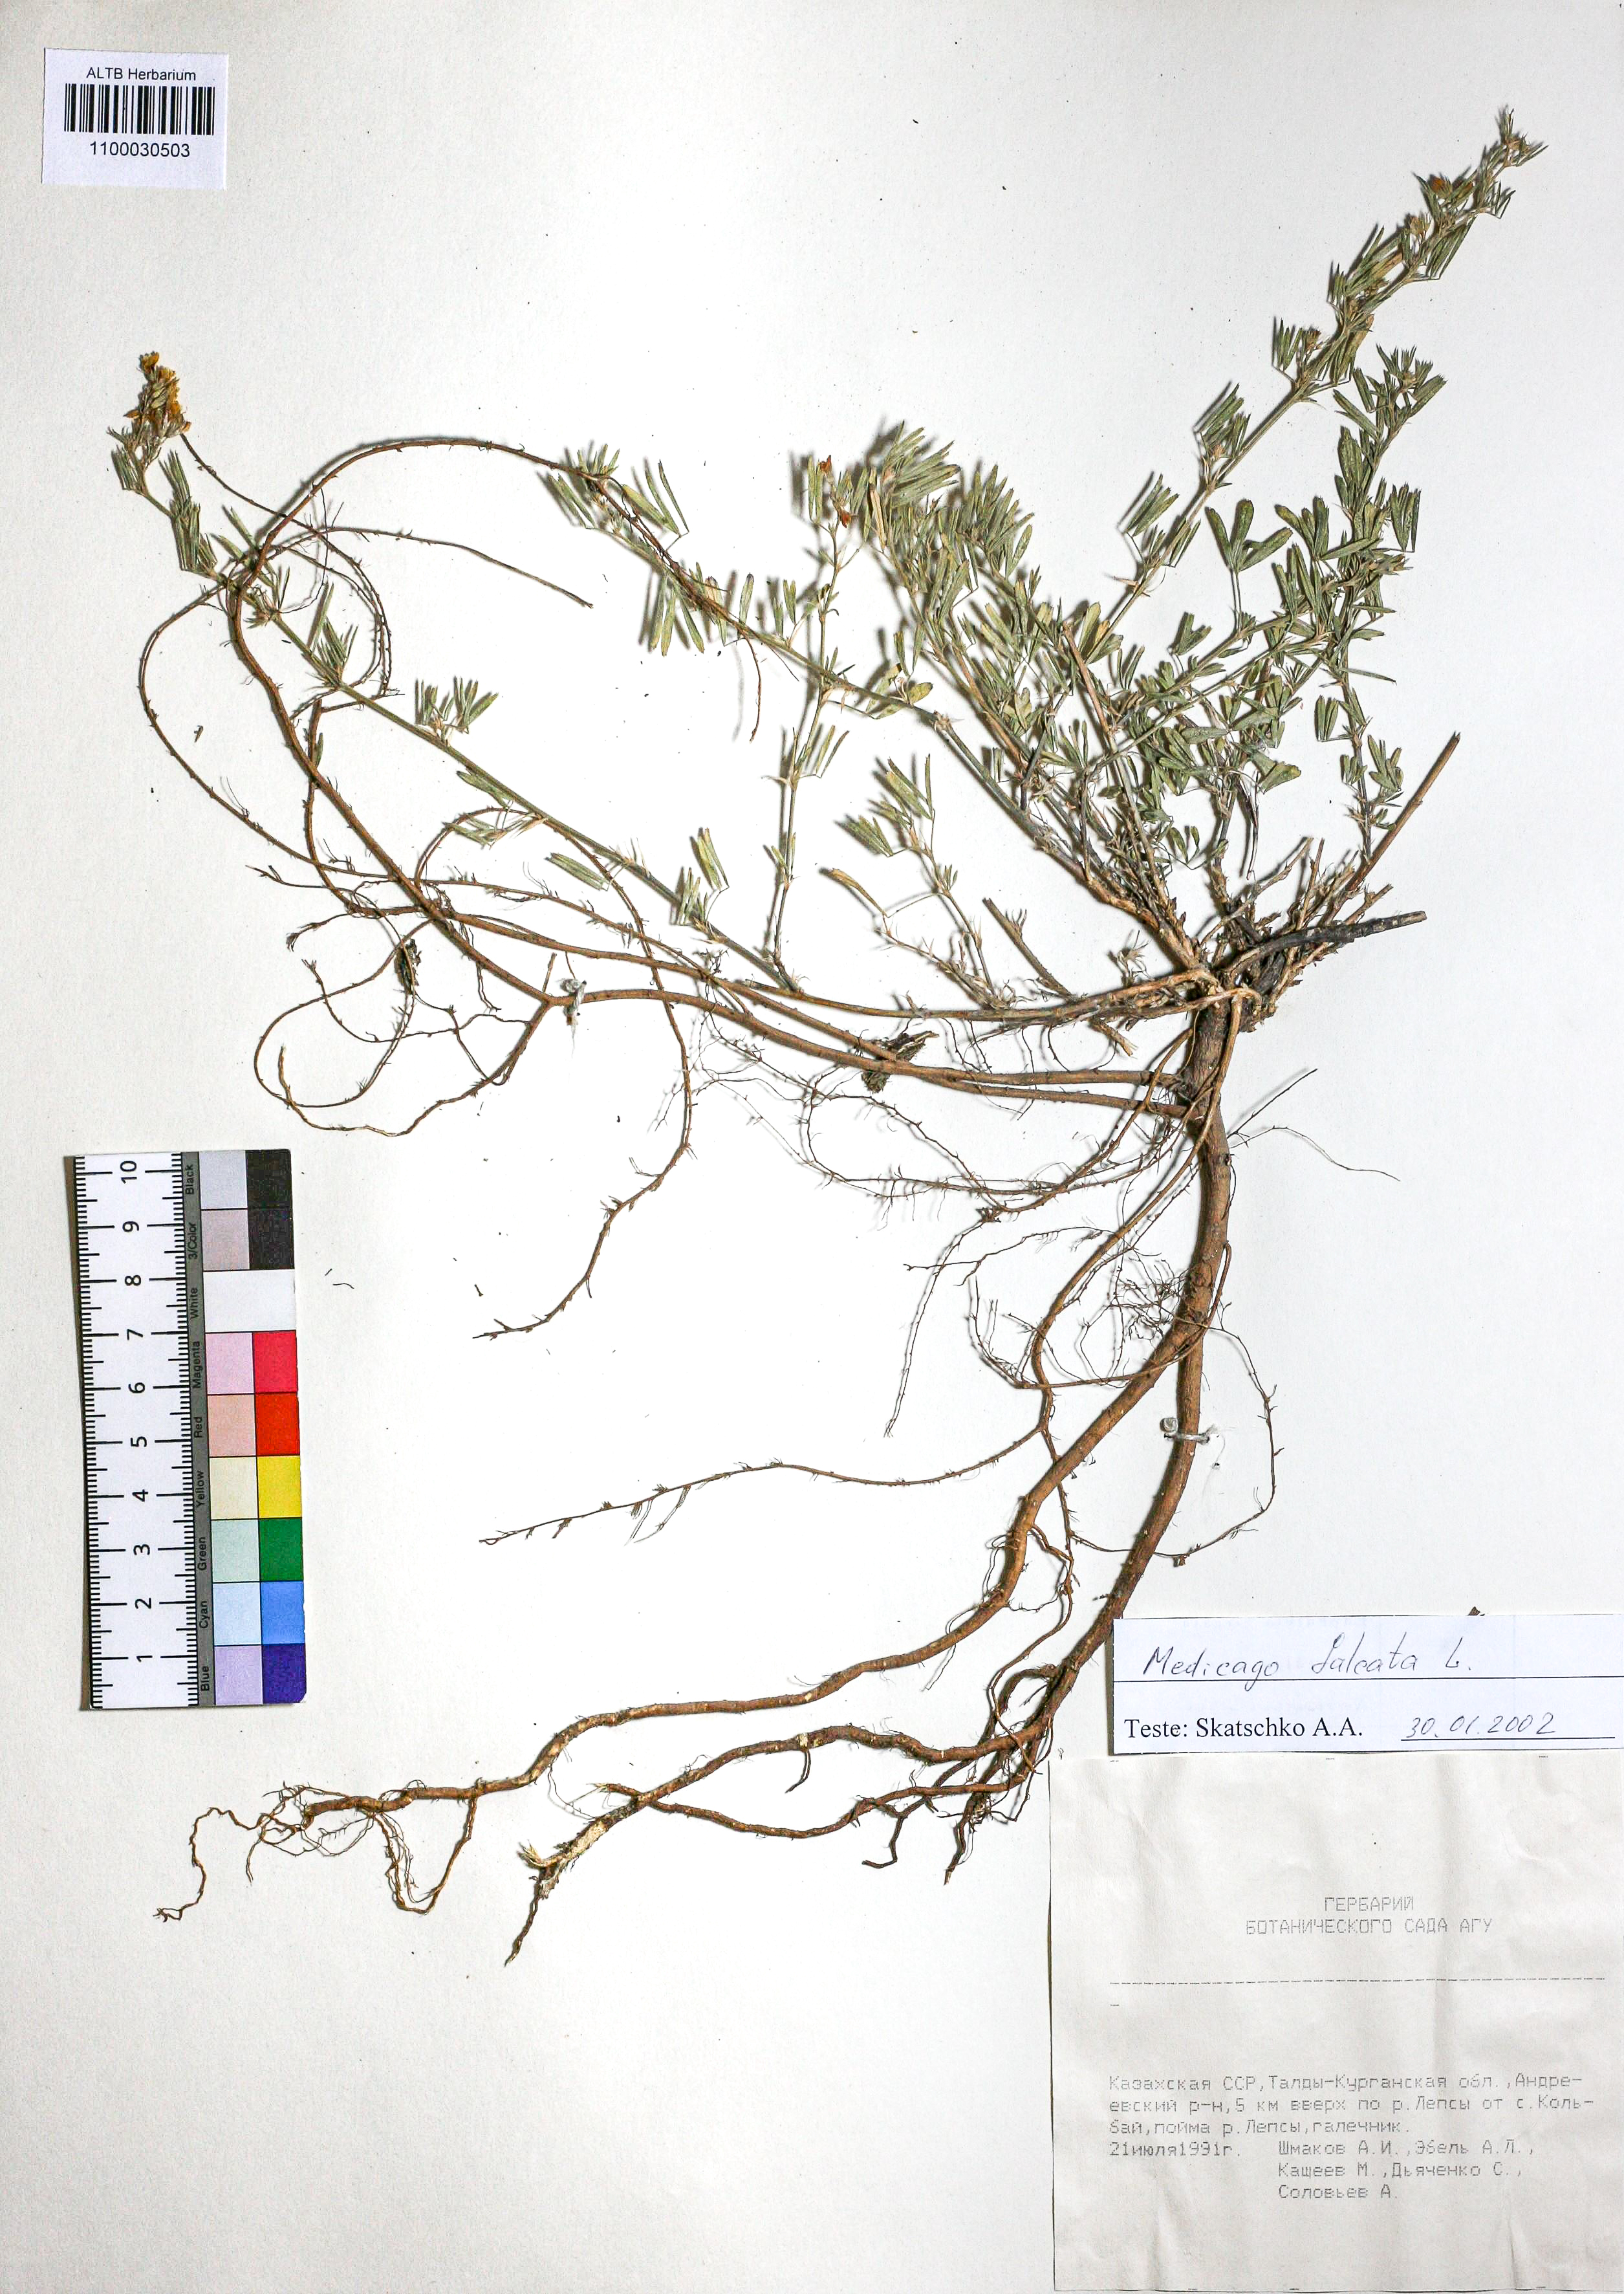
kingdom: Plantae
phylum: Tracheophyta
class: Magnoliopsida
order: Fabales
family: Fabaceae
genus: Medicago
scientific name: Medicago falcata
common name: Sickle medick
